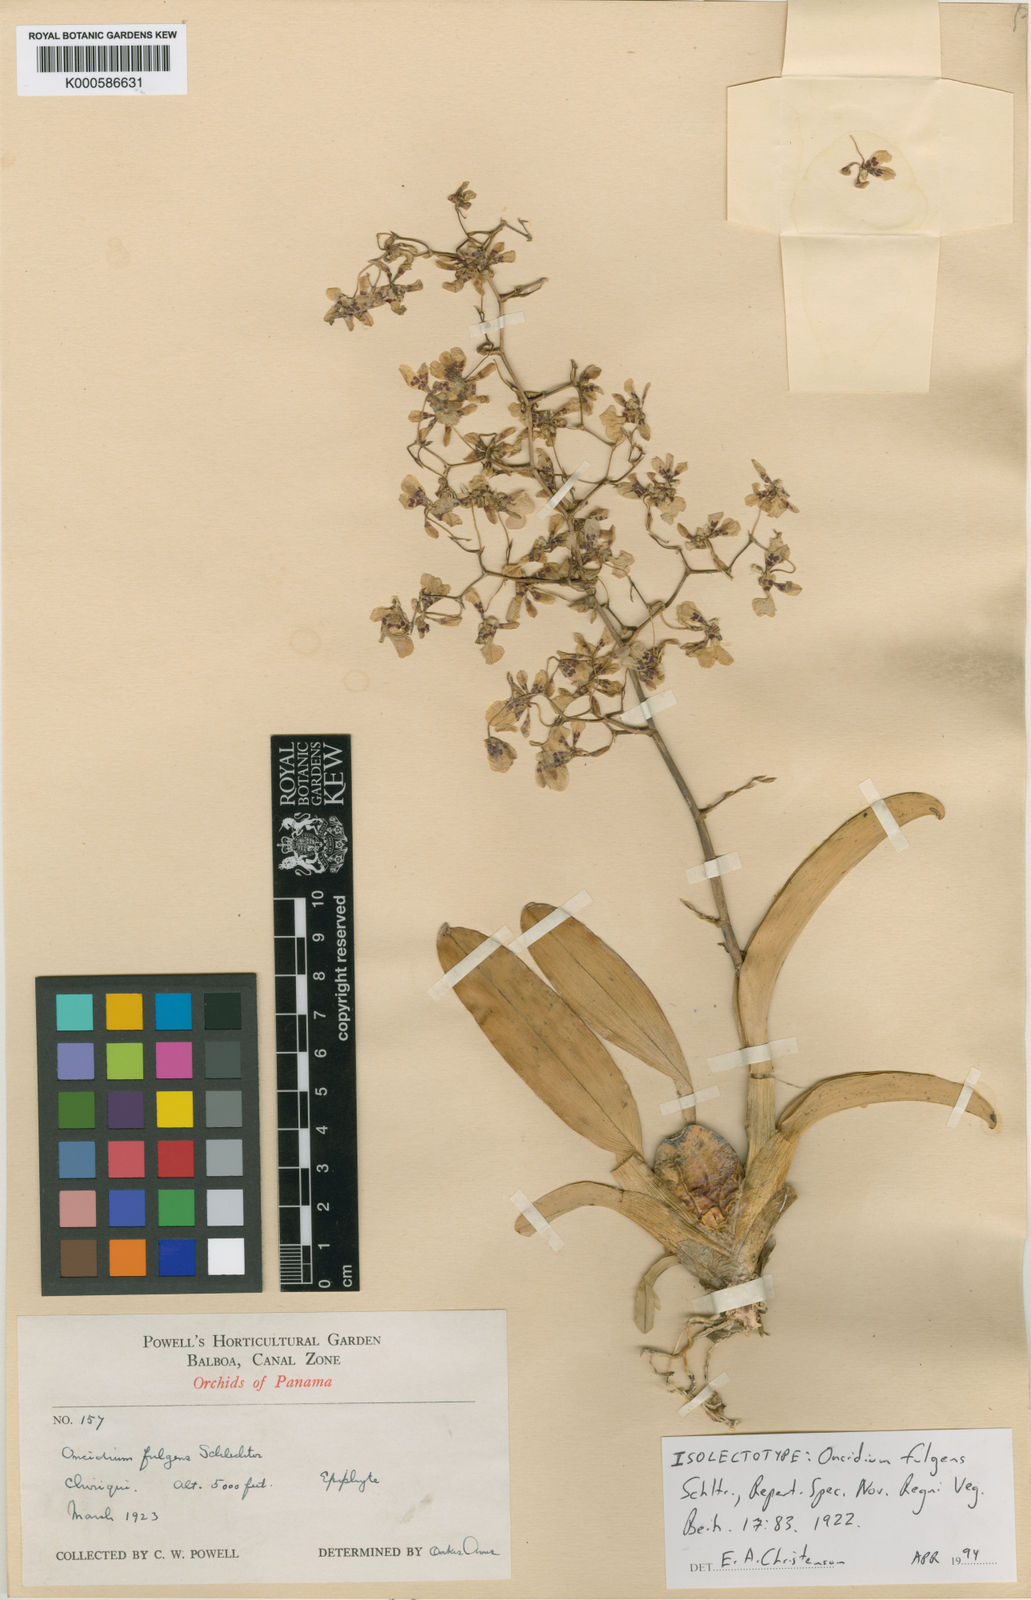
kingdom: Plantae
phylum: Tracheophyta
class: Liliopsida
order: Asparagales
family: Orchidaceae
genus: Oncidium
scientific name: Oncidium obryzatum
